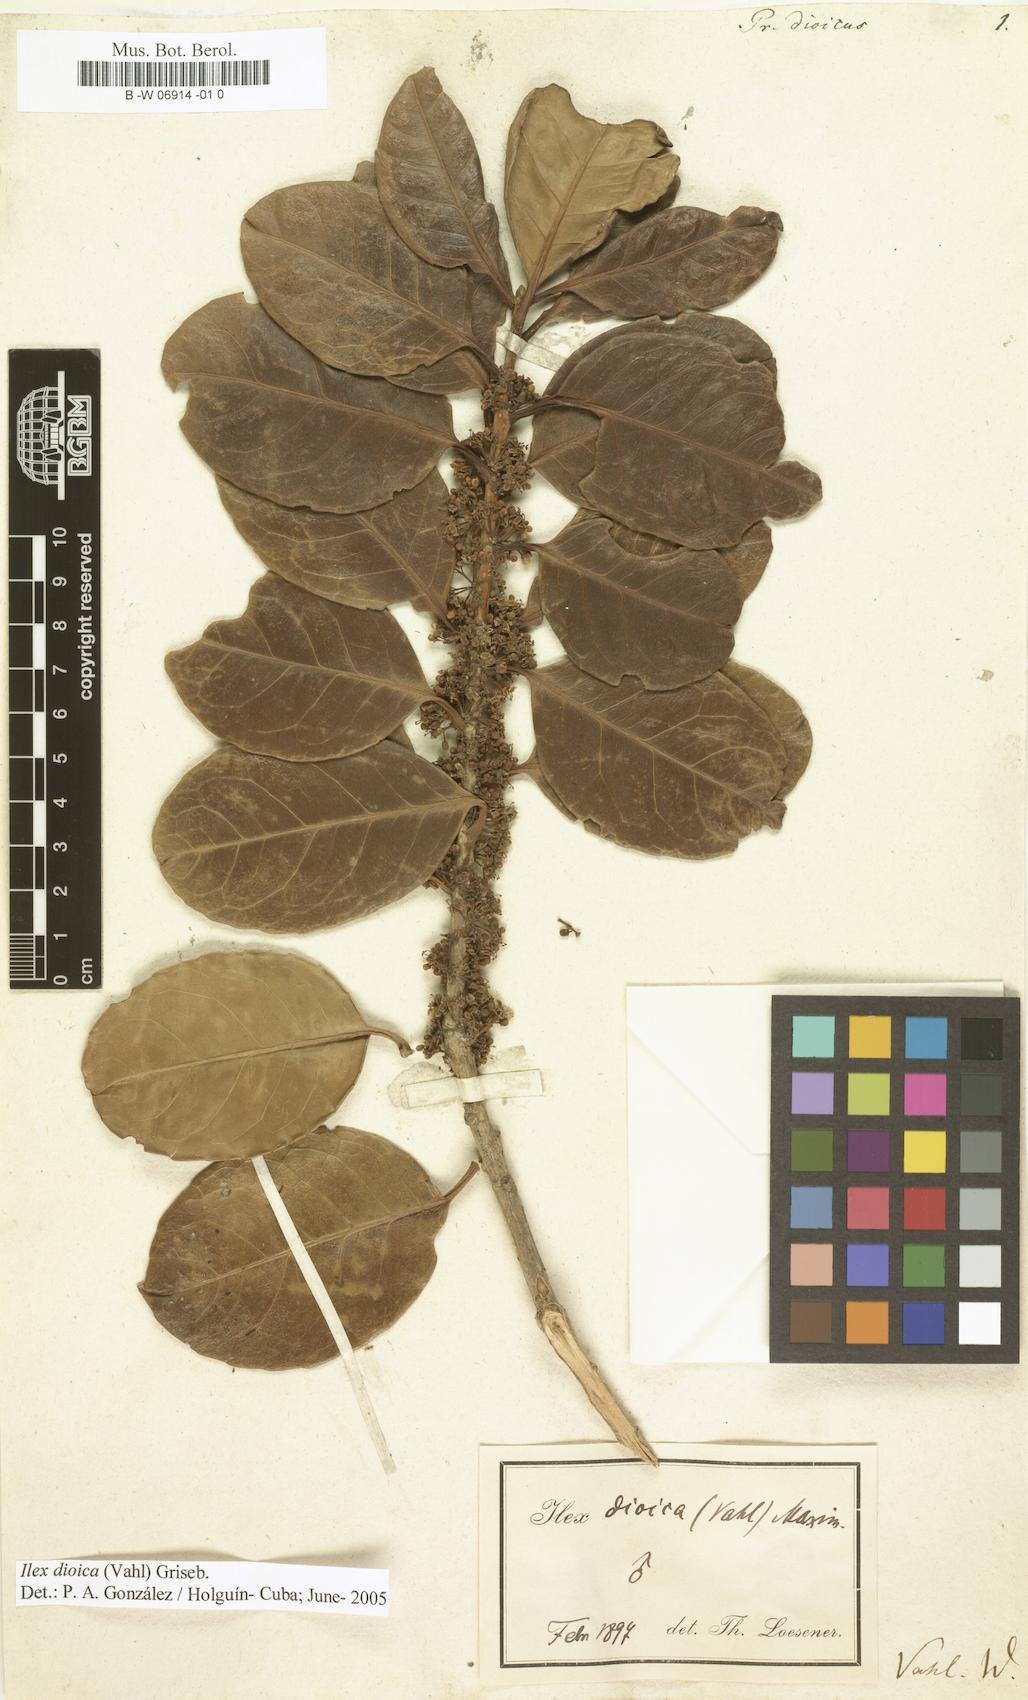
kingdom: Plantae
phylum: Tracheophyta
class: Magnoliopsida
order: Aquifoliales
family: Aquifoliaceae
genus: Ilex
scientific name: Ilex dioica
